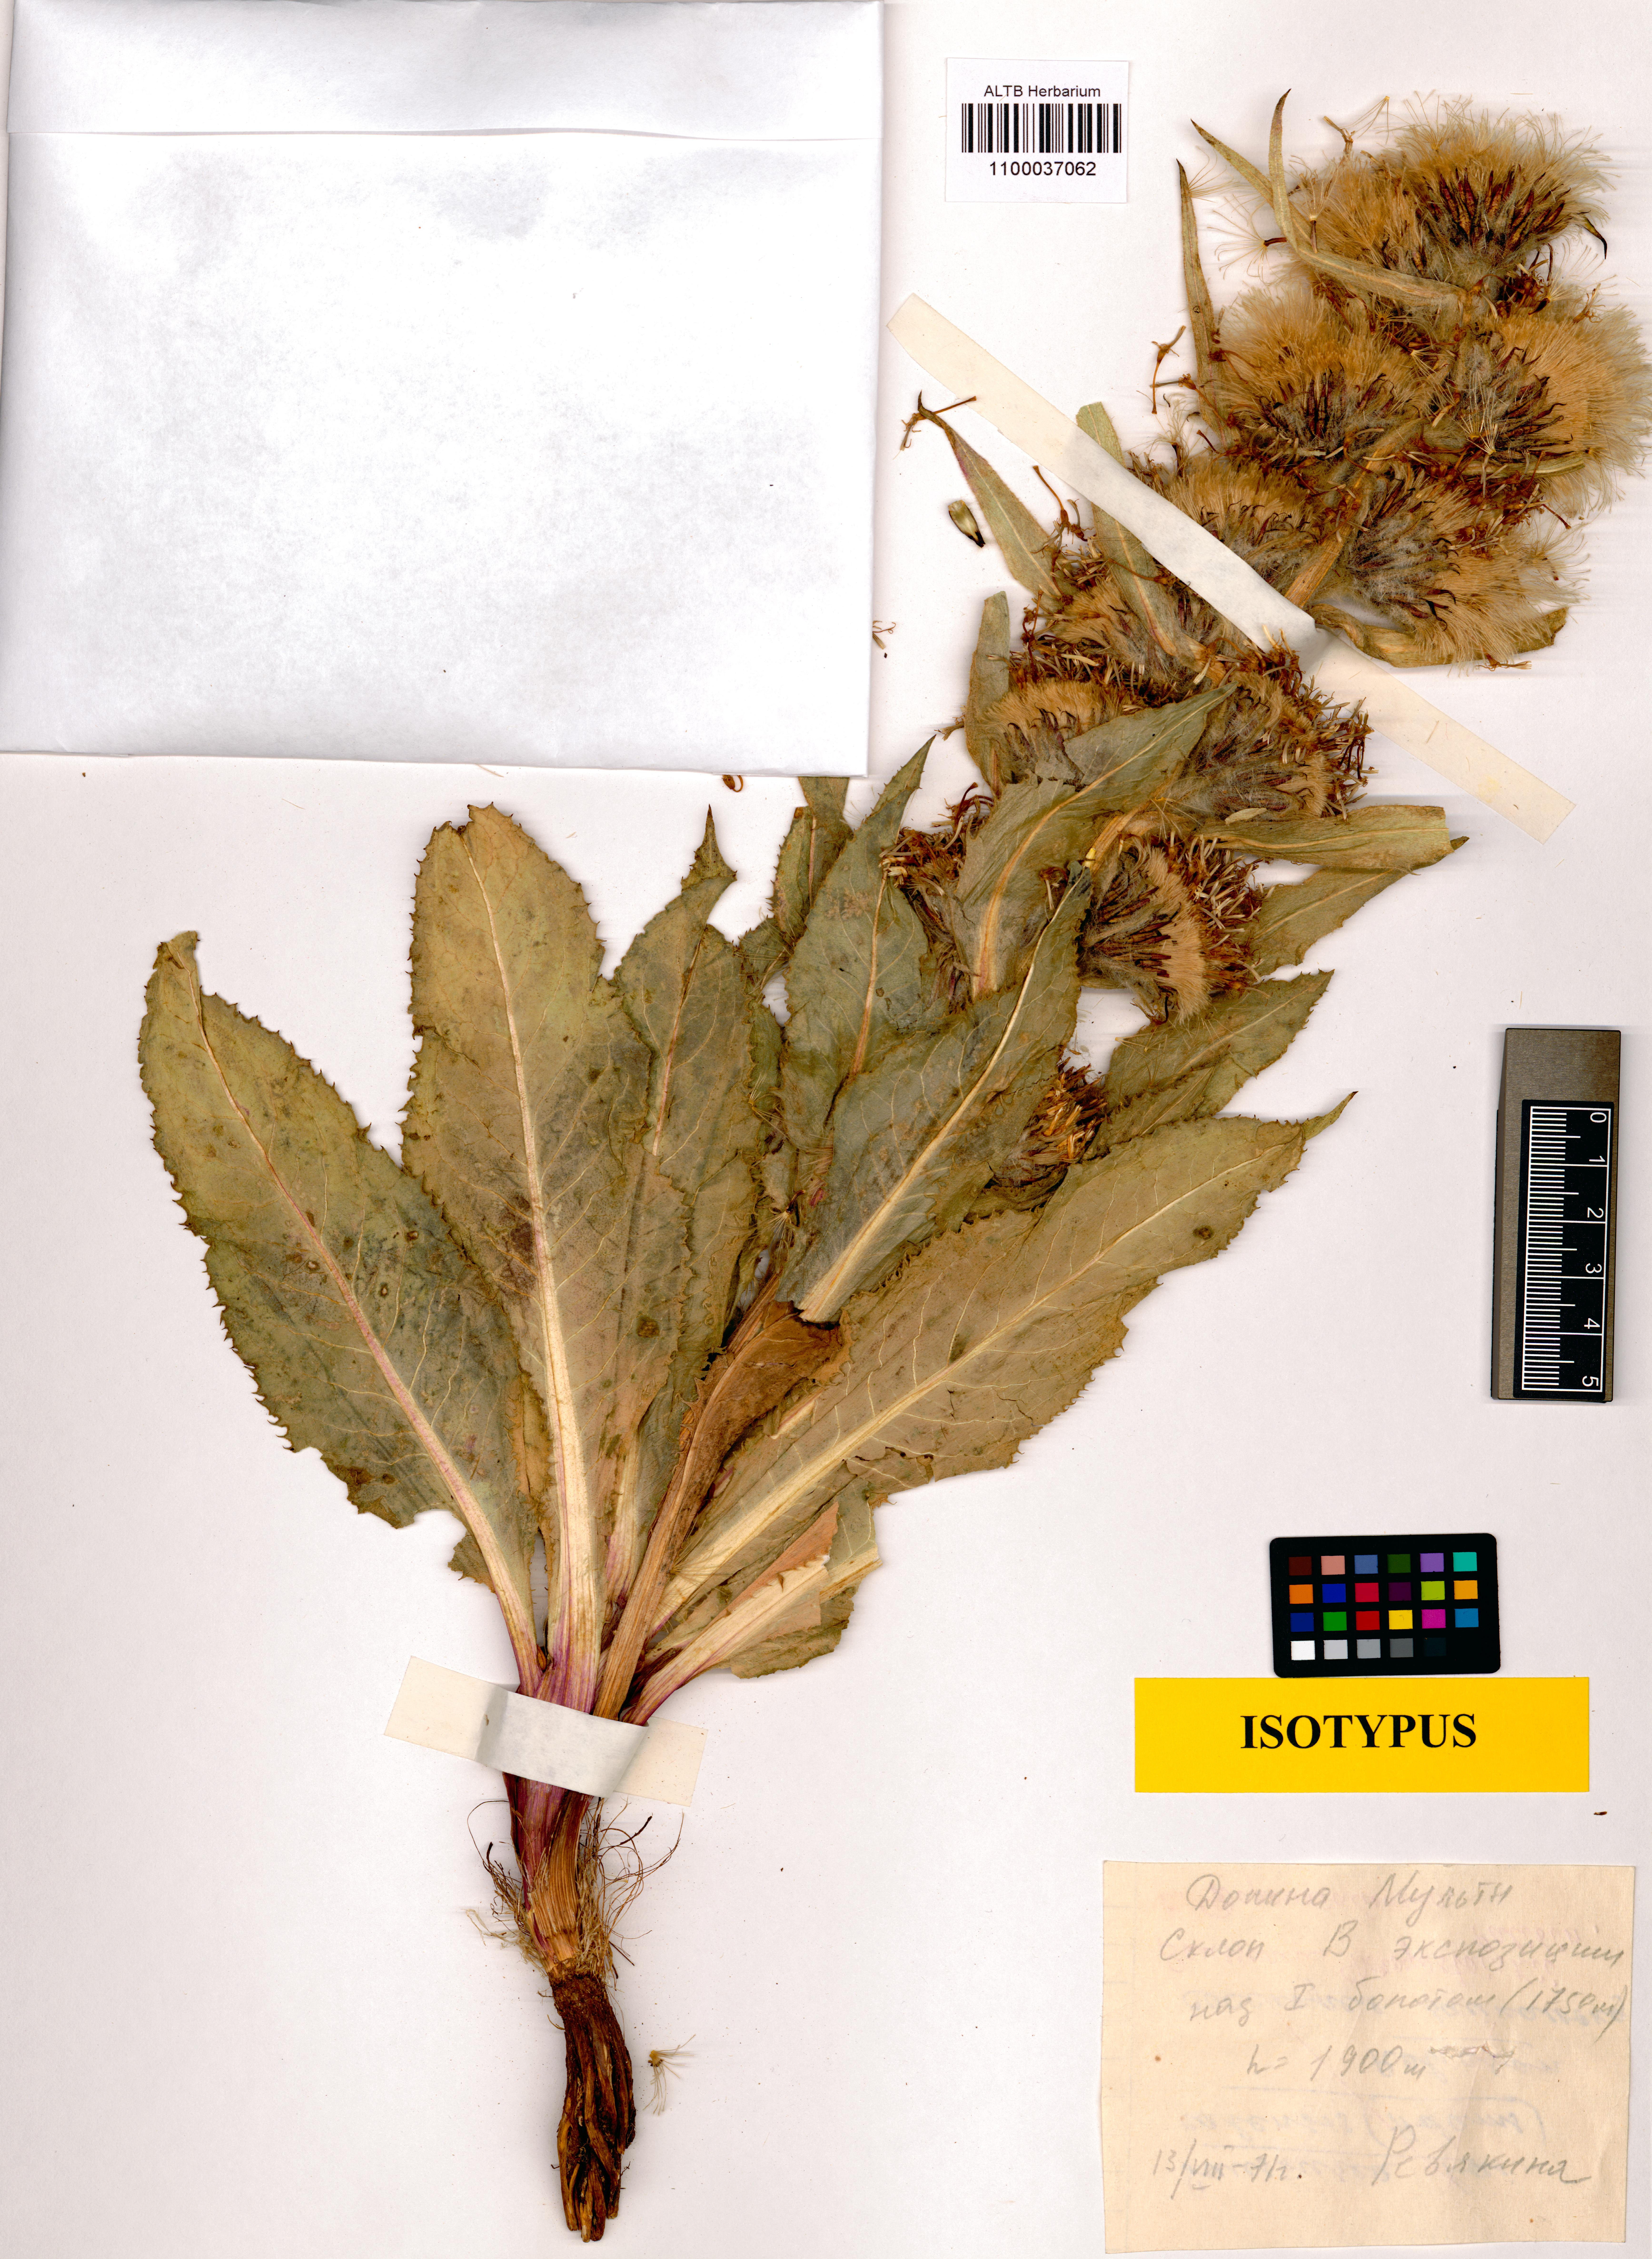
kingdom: Plantae
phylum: Tracheophyta
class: Magnoliopsida
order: Asterales
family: Asteraceae
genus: Saussurea
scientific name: Saussurea revjakinae
